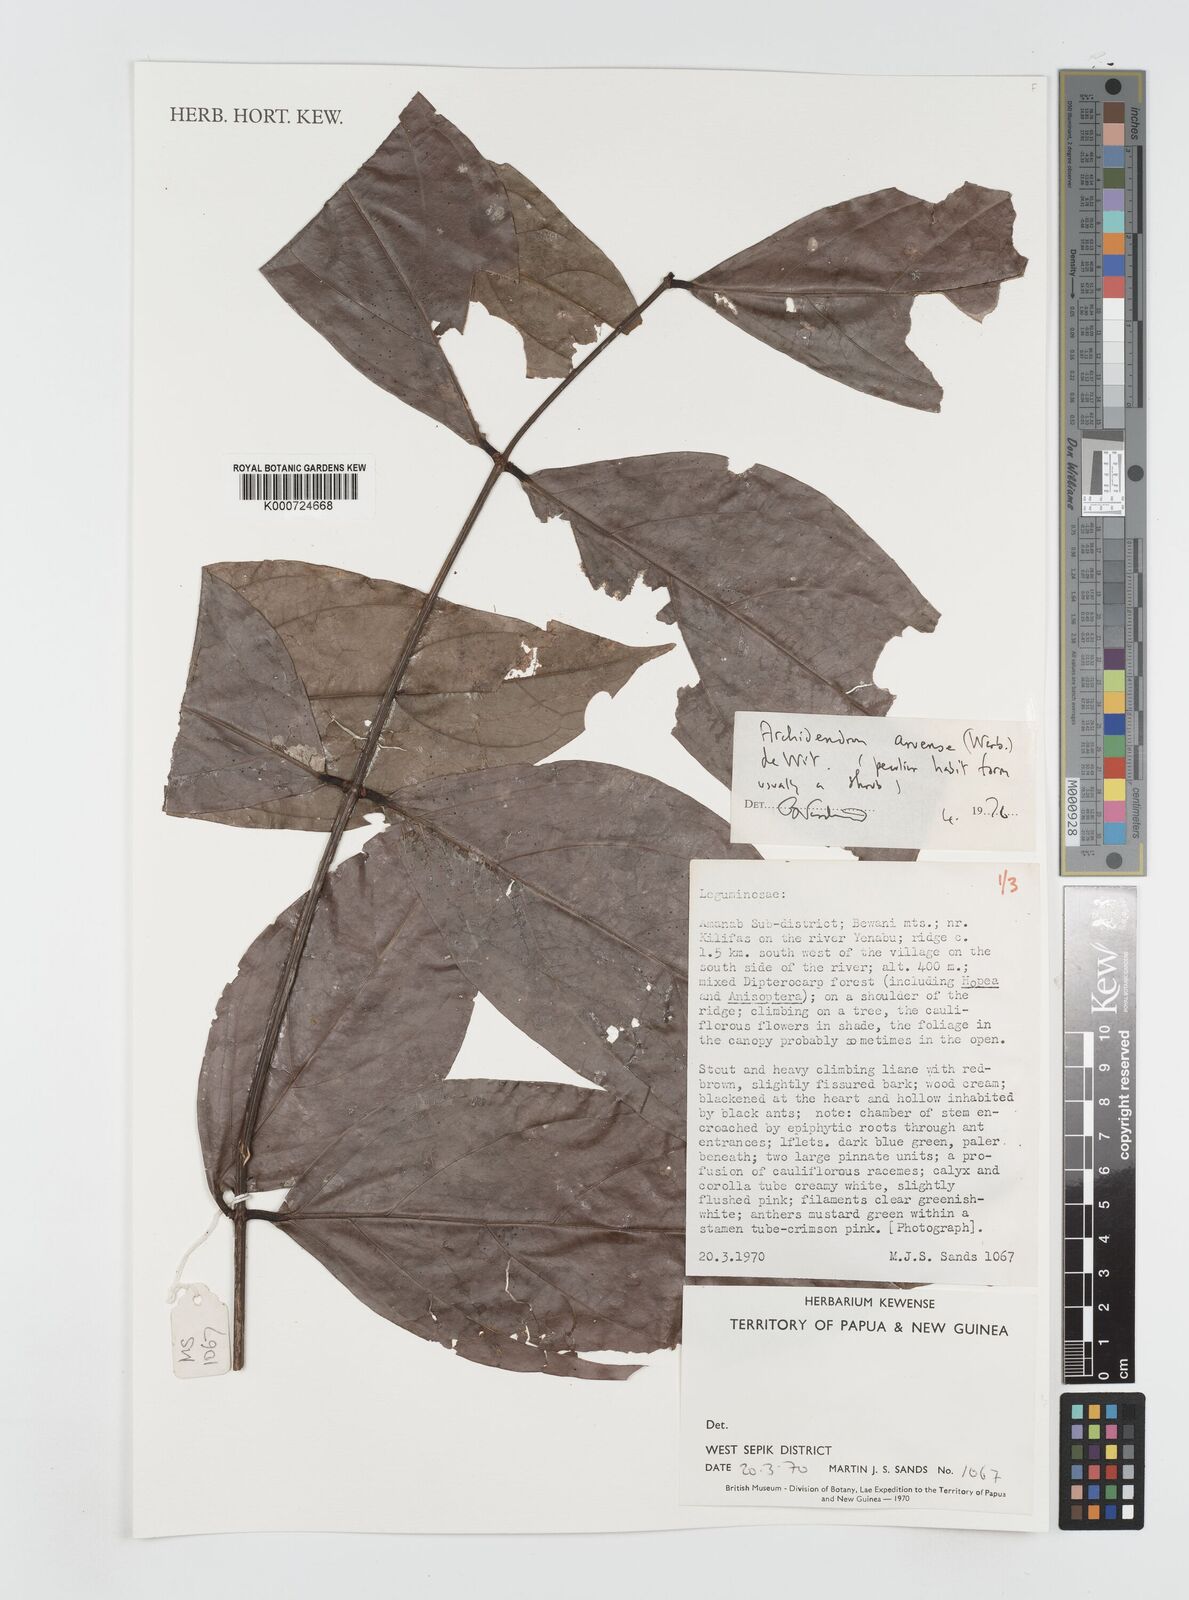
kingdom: Plantae
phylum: Tracheophyta
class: Magnoliopsida
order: Fabales
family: Fabaceae
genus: Archidendron
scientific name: Archidendron aruense
